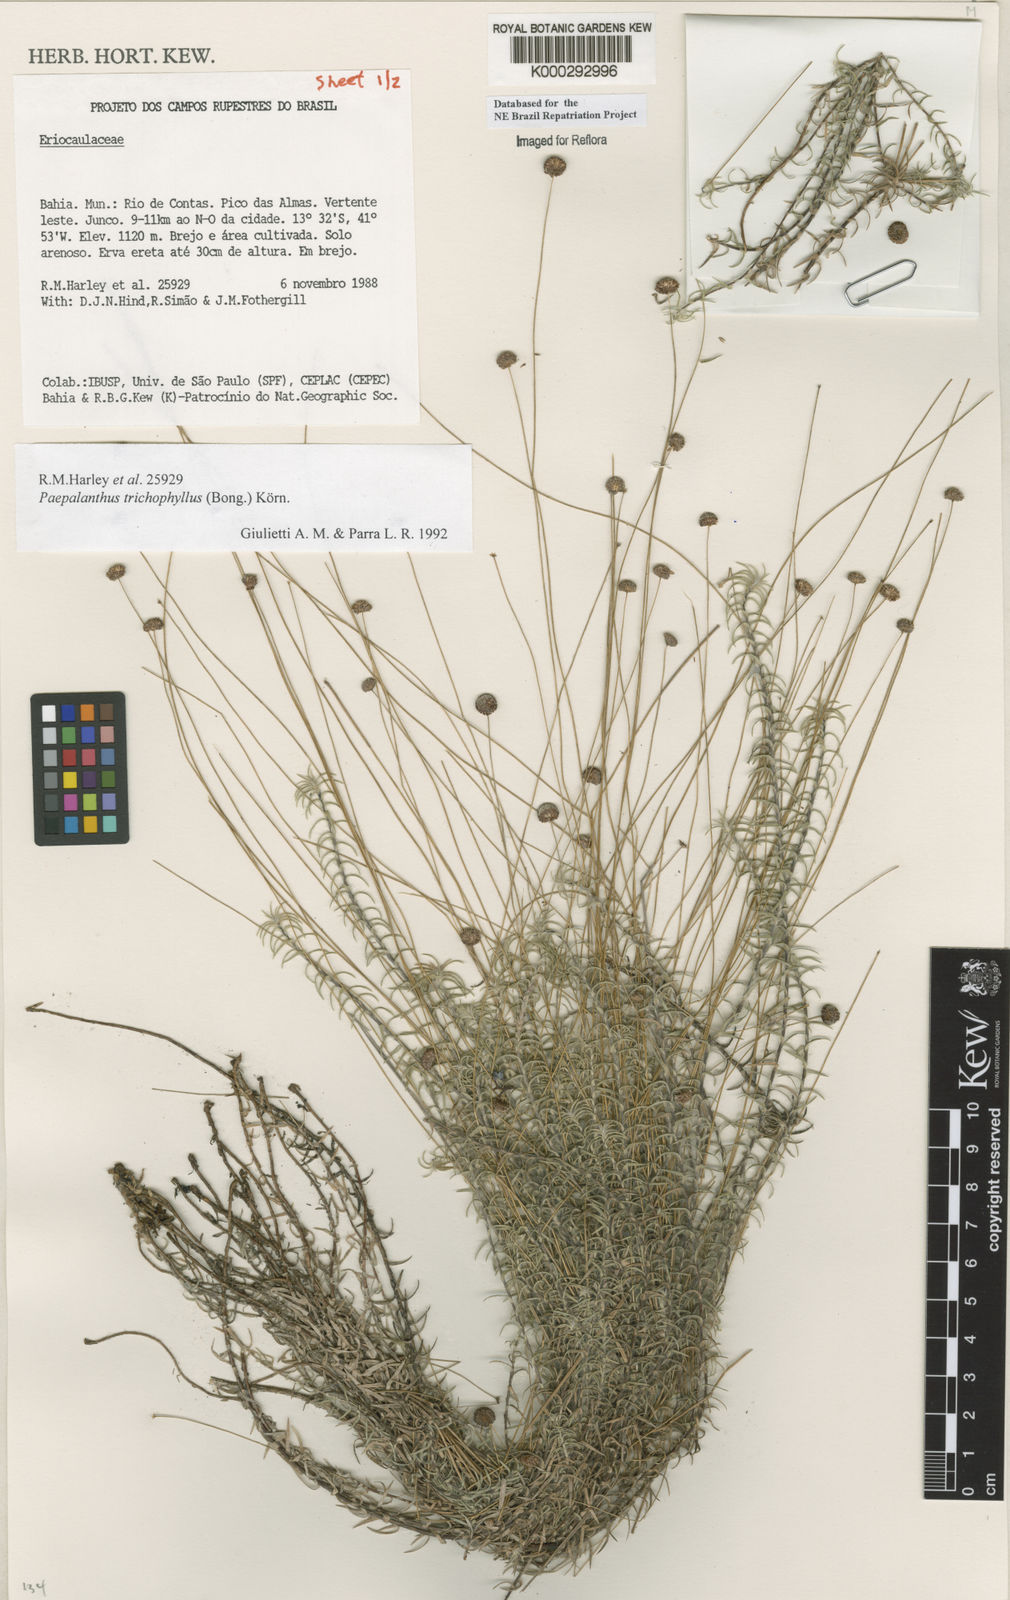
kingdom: Plantae
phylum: Tracheophyta
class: Liliopsida
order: Poales
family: Eriocaulaceae
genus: Paepalanthus
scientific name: Paepalanthus
